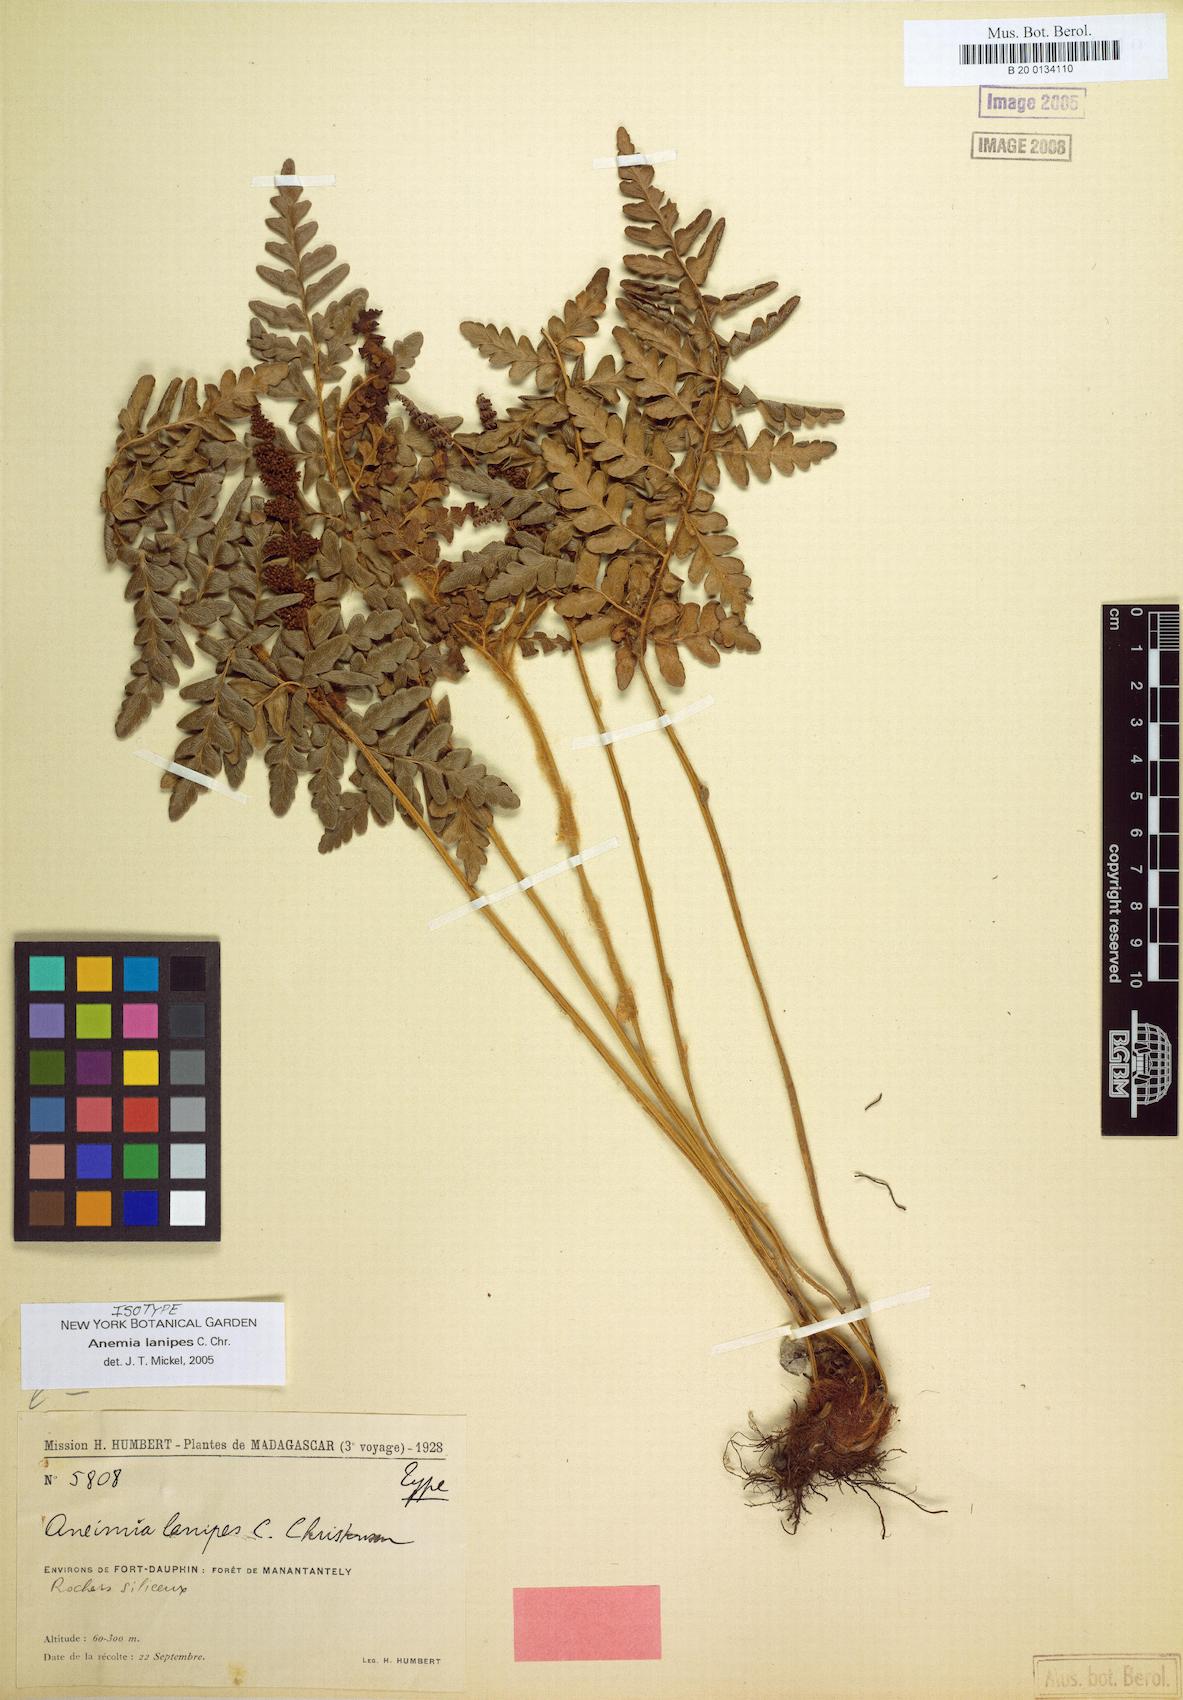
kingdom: Plantae
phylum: Tracheophyta
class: Polypodiopsida
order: Schizaeales
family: Anemiaceae
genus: Anemia
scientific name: Anemia lanipes
